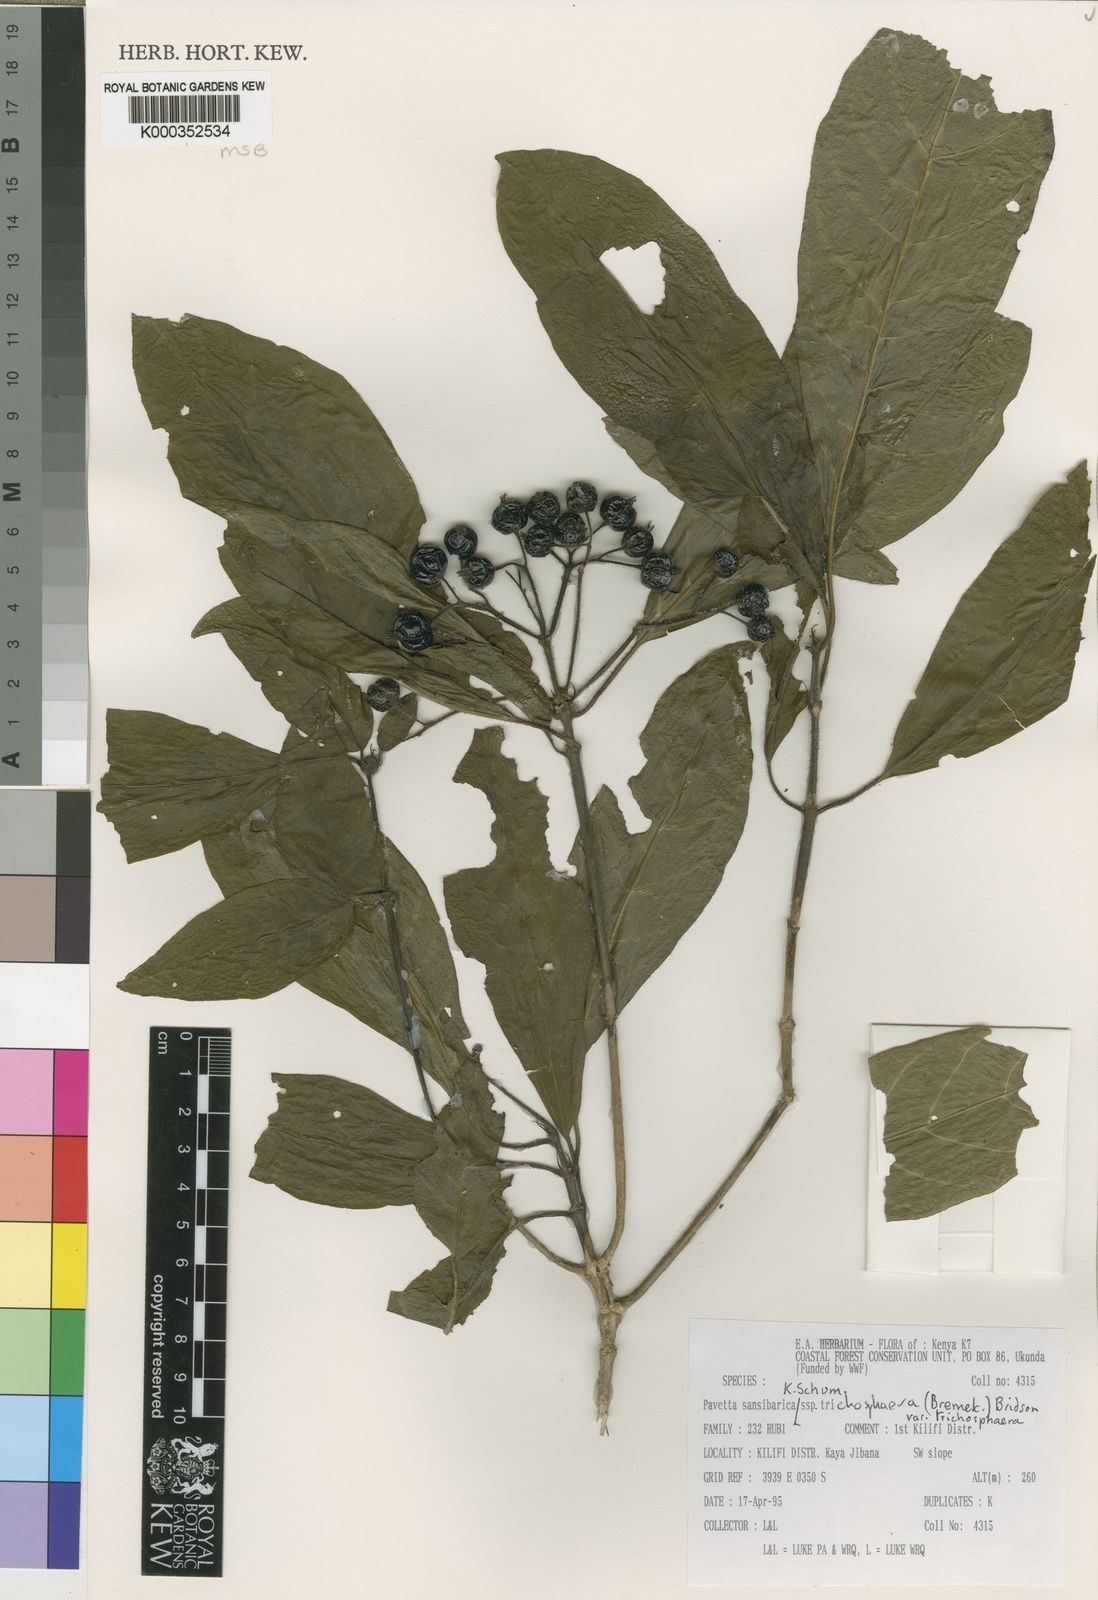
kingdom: Plantae
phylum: Tracheophyta
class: Magnoliopsida
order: Gentianales
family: Rubiaceae
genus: Pavetta
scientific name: Pavetta sansibarica
